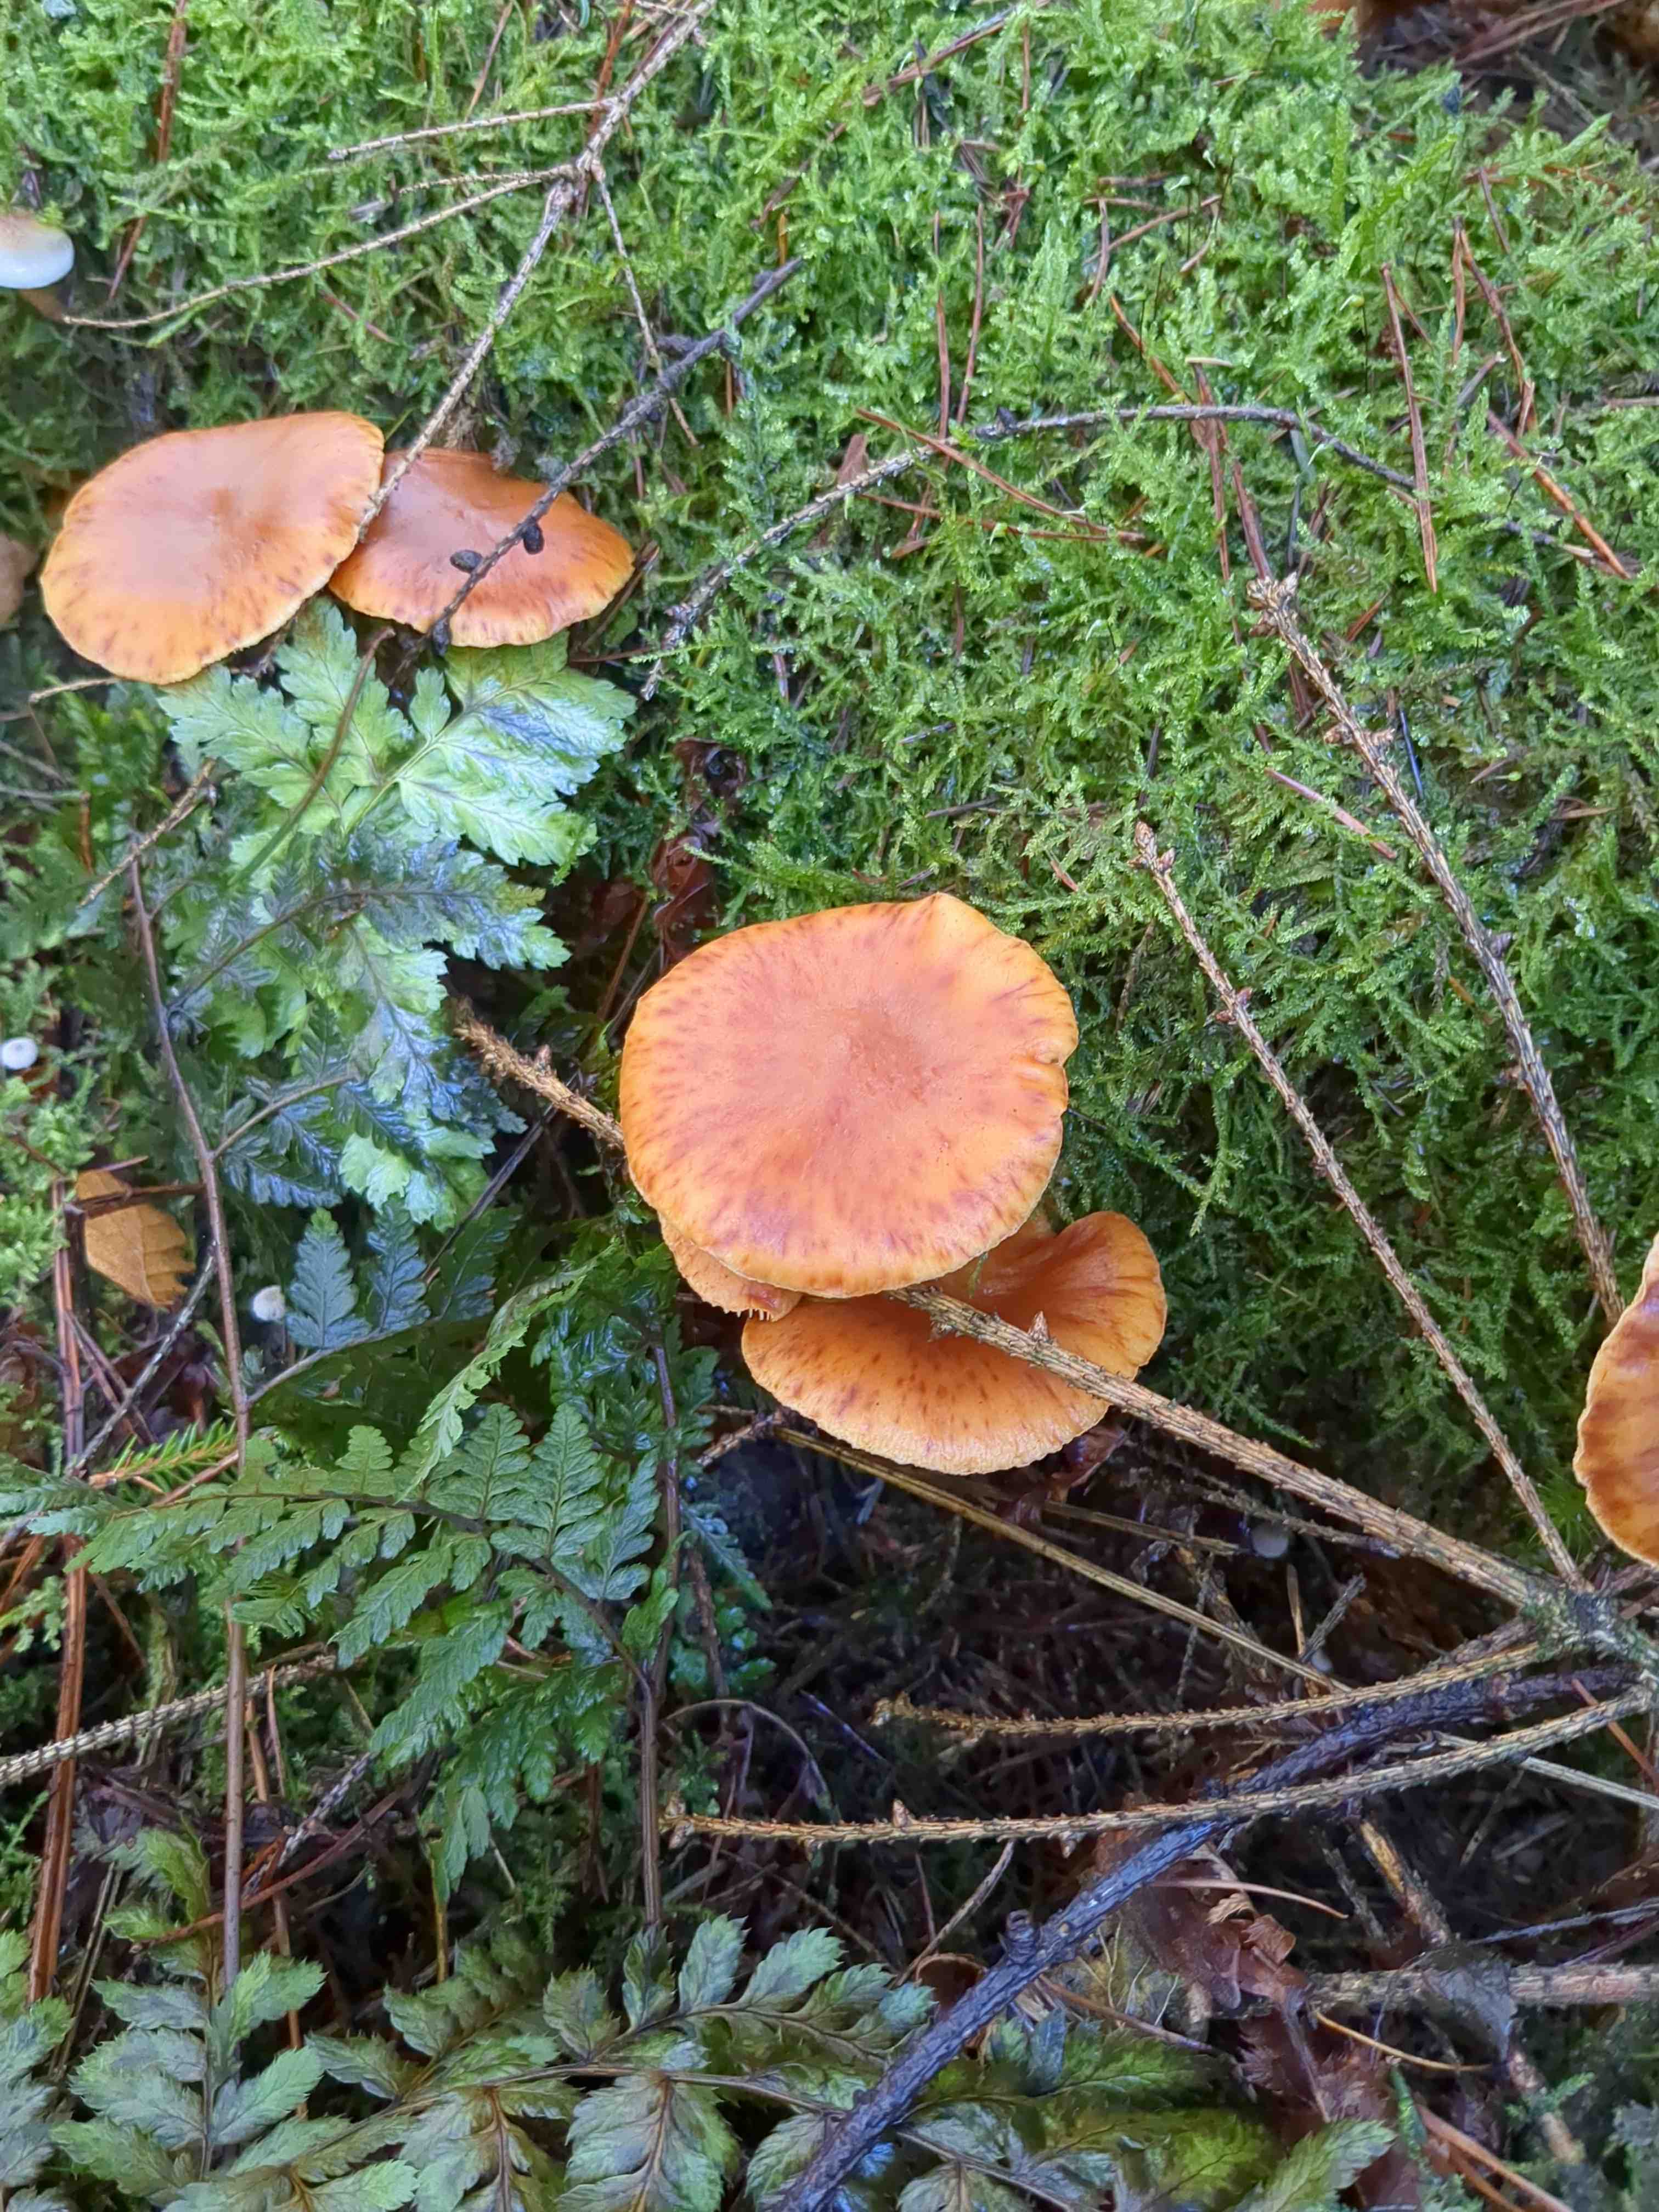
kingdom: Fungi
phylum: Basidiomycota
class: Agaricomycetes
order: Agaricales
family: Hymenogastraceae
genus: Gymnopilus
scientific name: Gymnopilus penetrans
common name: plettet flammehat
